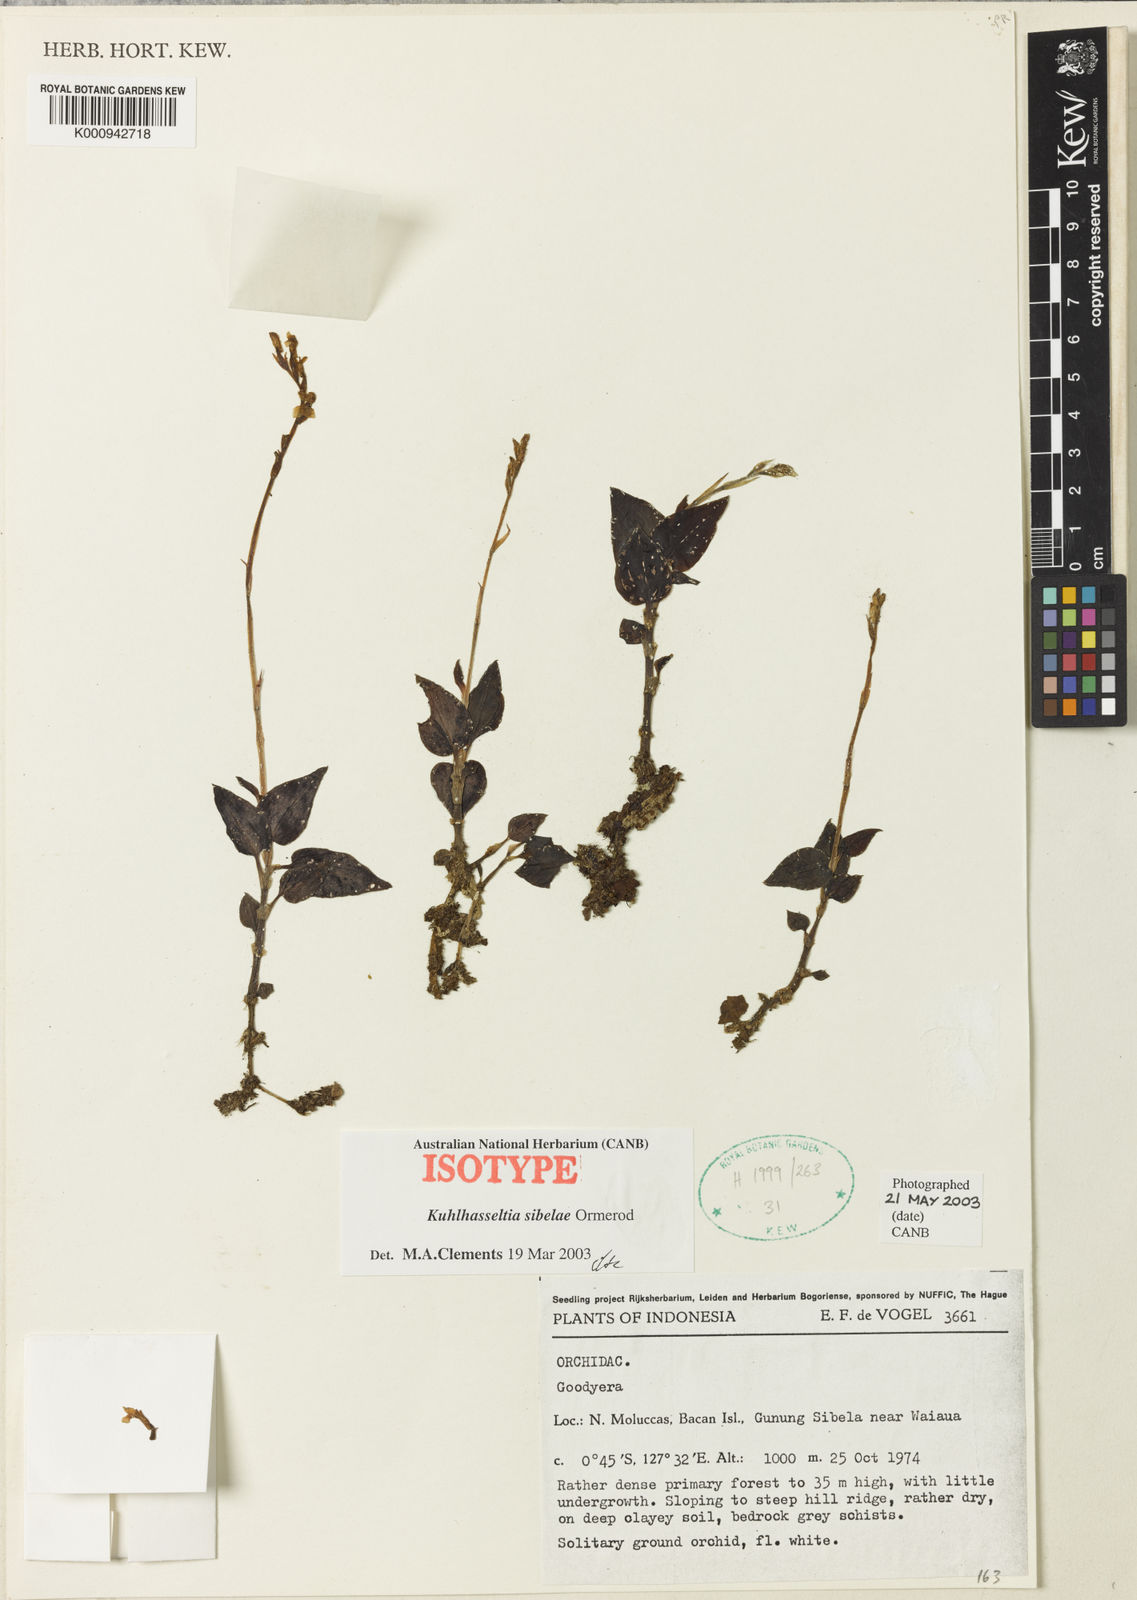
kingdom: Plantae
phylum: Tracheophyta
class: Liliopsida
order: Asparagales
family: Orchidaceae
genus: Odontochilus
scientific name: Odontochilus sibelae
